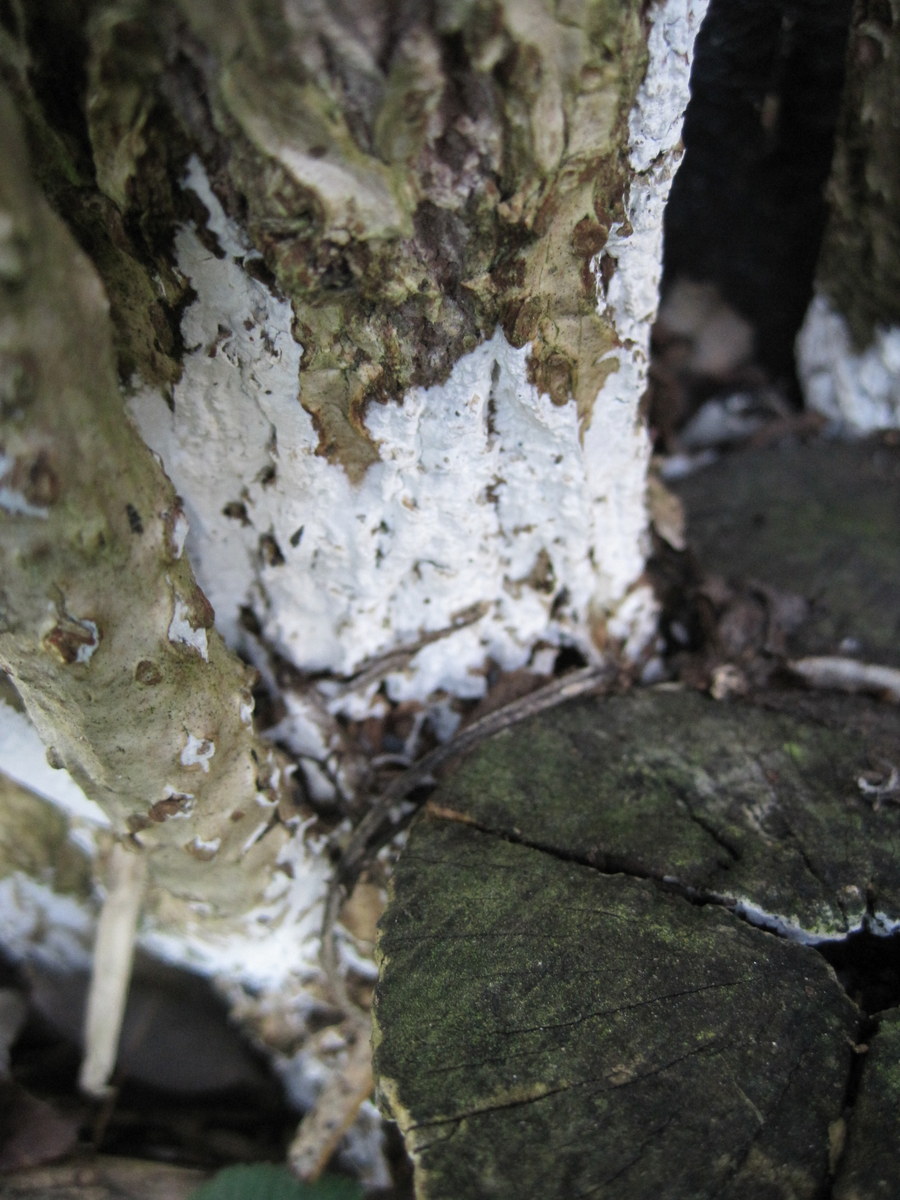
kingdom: Fungi
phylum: Basidiomycota
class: Agaricomycetes
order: Corticiales
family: Corticiaceae
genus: Lyomyces
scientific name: Lyomyces sambuci
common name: almindelig hyldehinde
